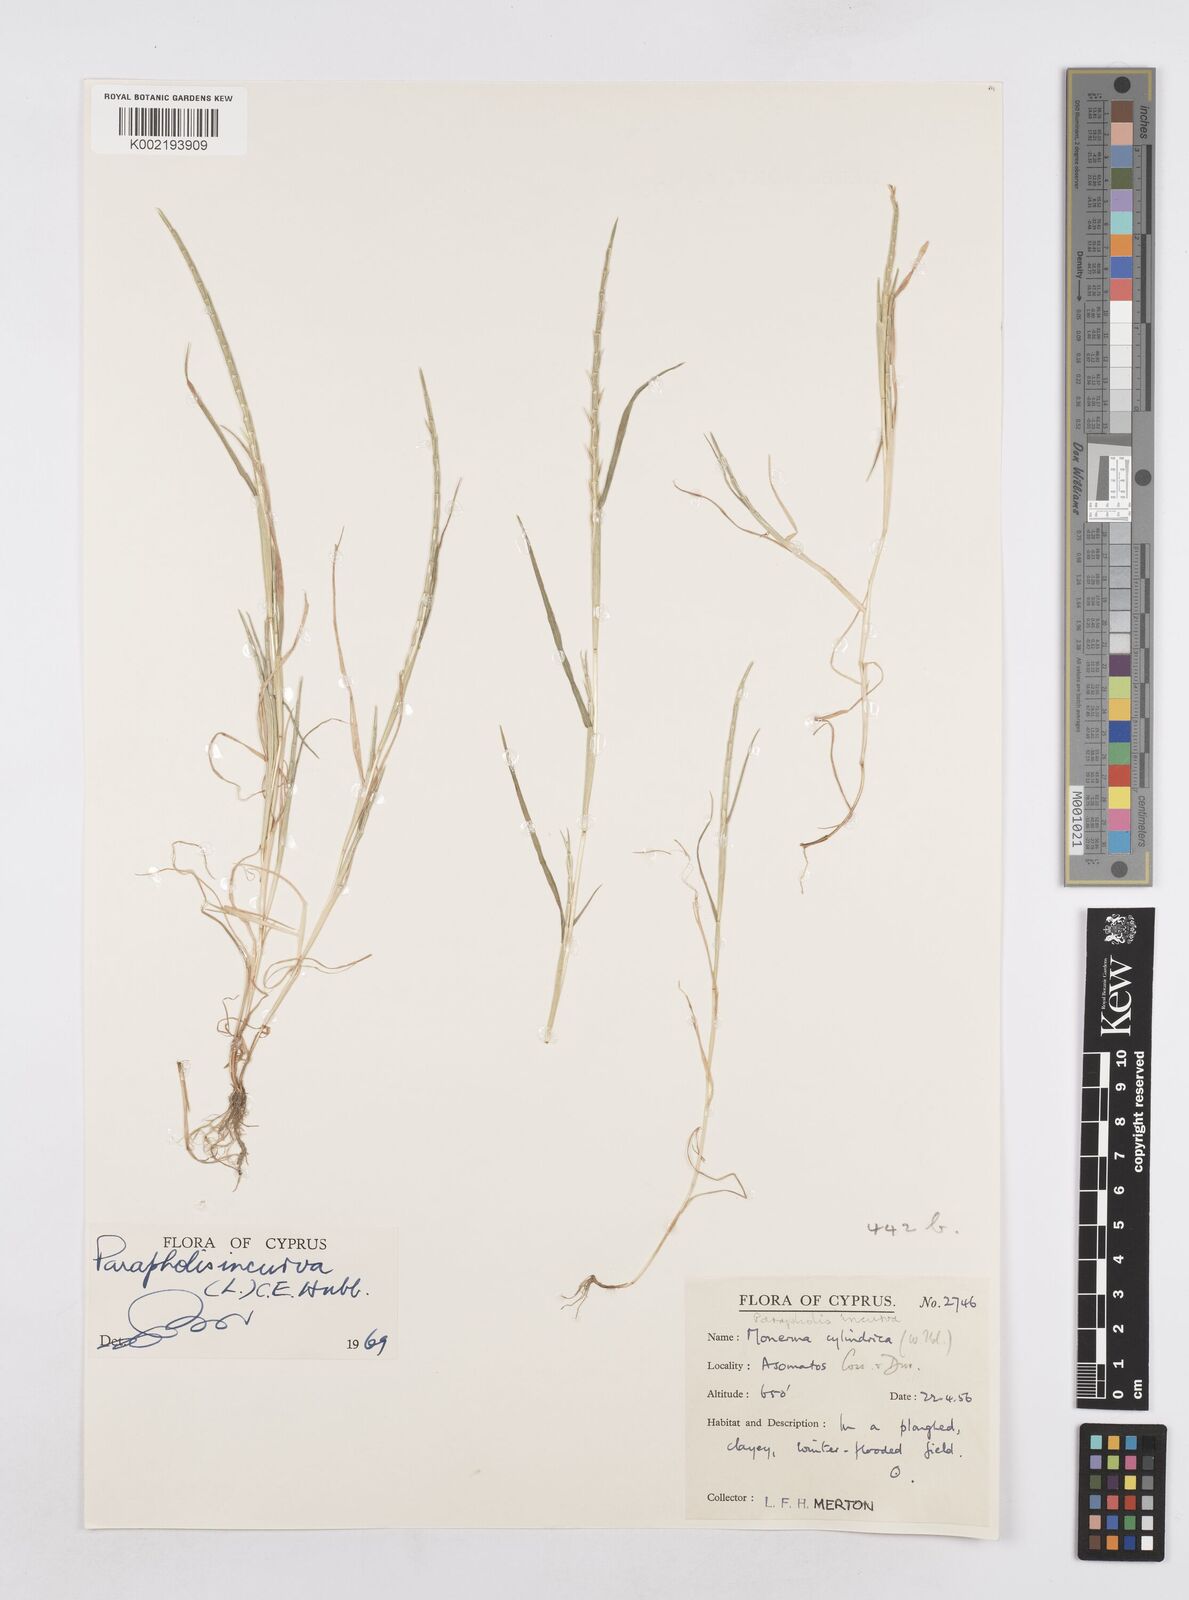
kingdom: Plantae
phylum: Tracheophyta
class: Liliopsida
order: Poales
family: Poaceae
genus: Parapholis
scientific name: Parapholis incurva
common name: Curved sicklegrass
